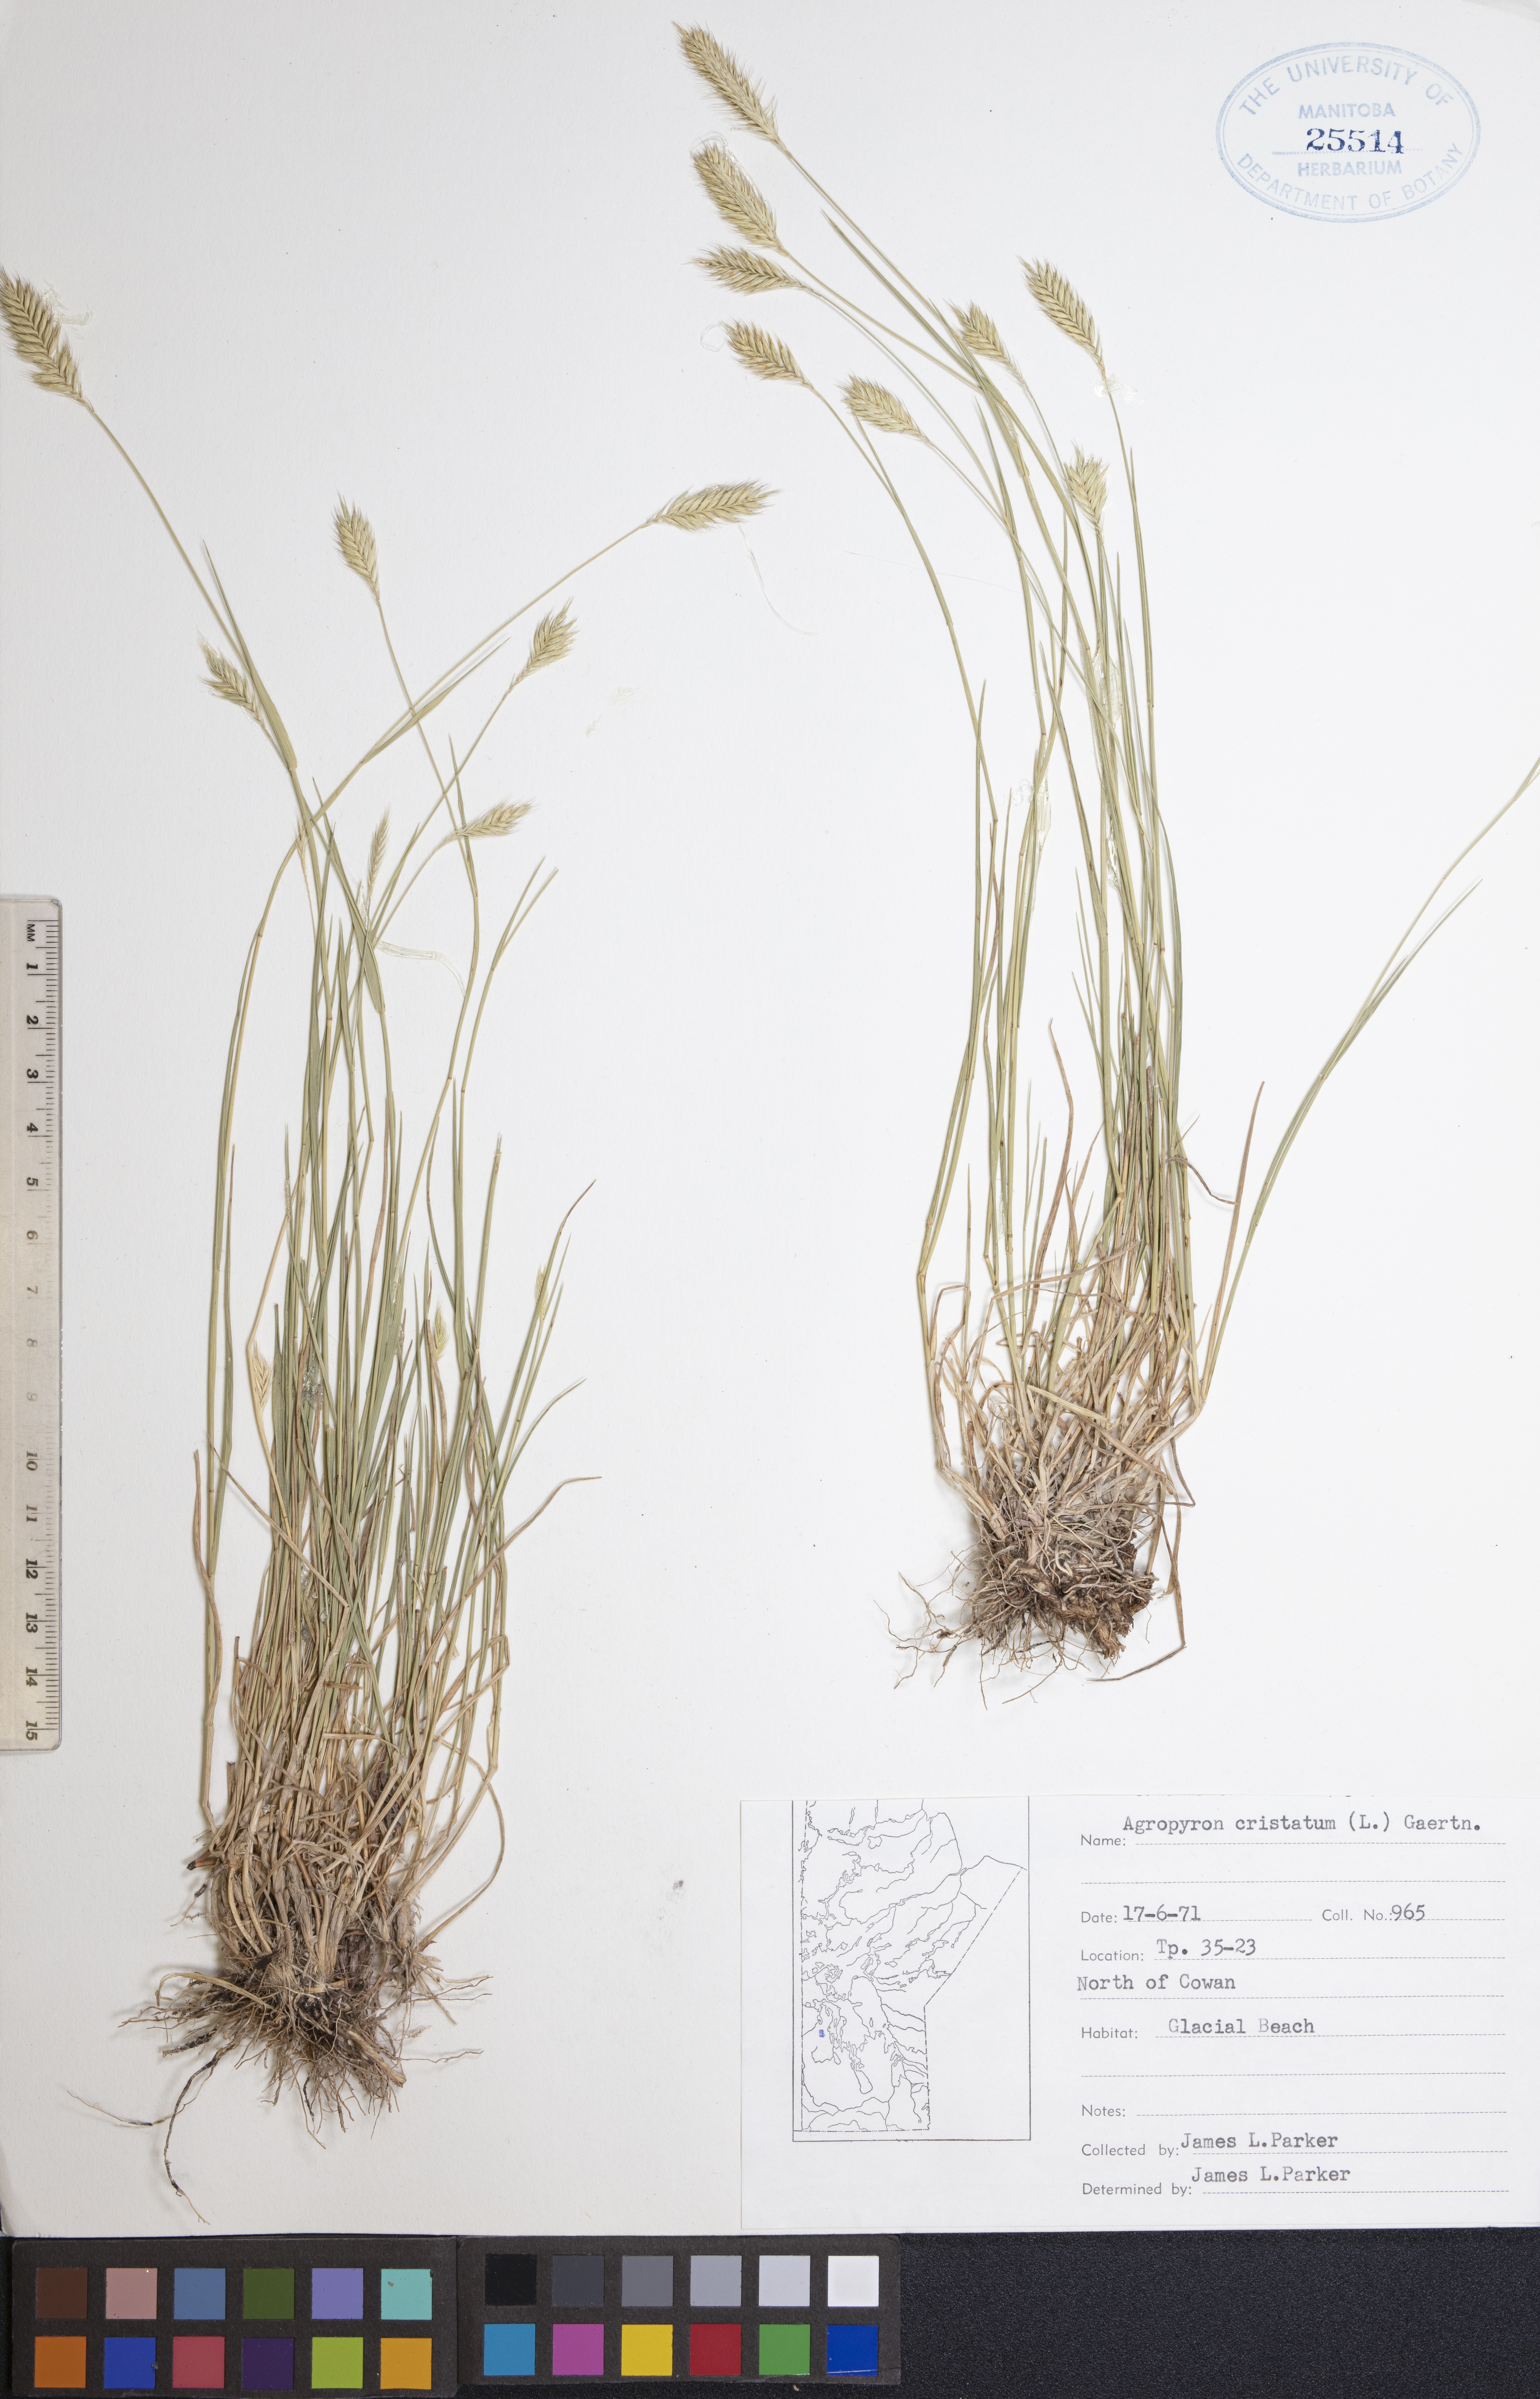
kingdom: Plantae
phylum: Tracheophyta
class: Liliopsida
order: Poales
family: Poaceae
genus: Agropyron
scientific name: Agropyron cristatum
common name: Crested wheatgrass
